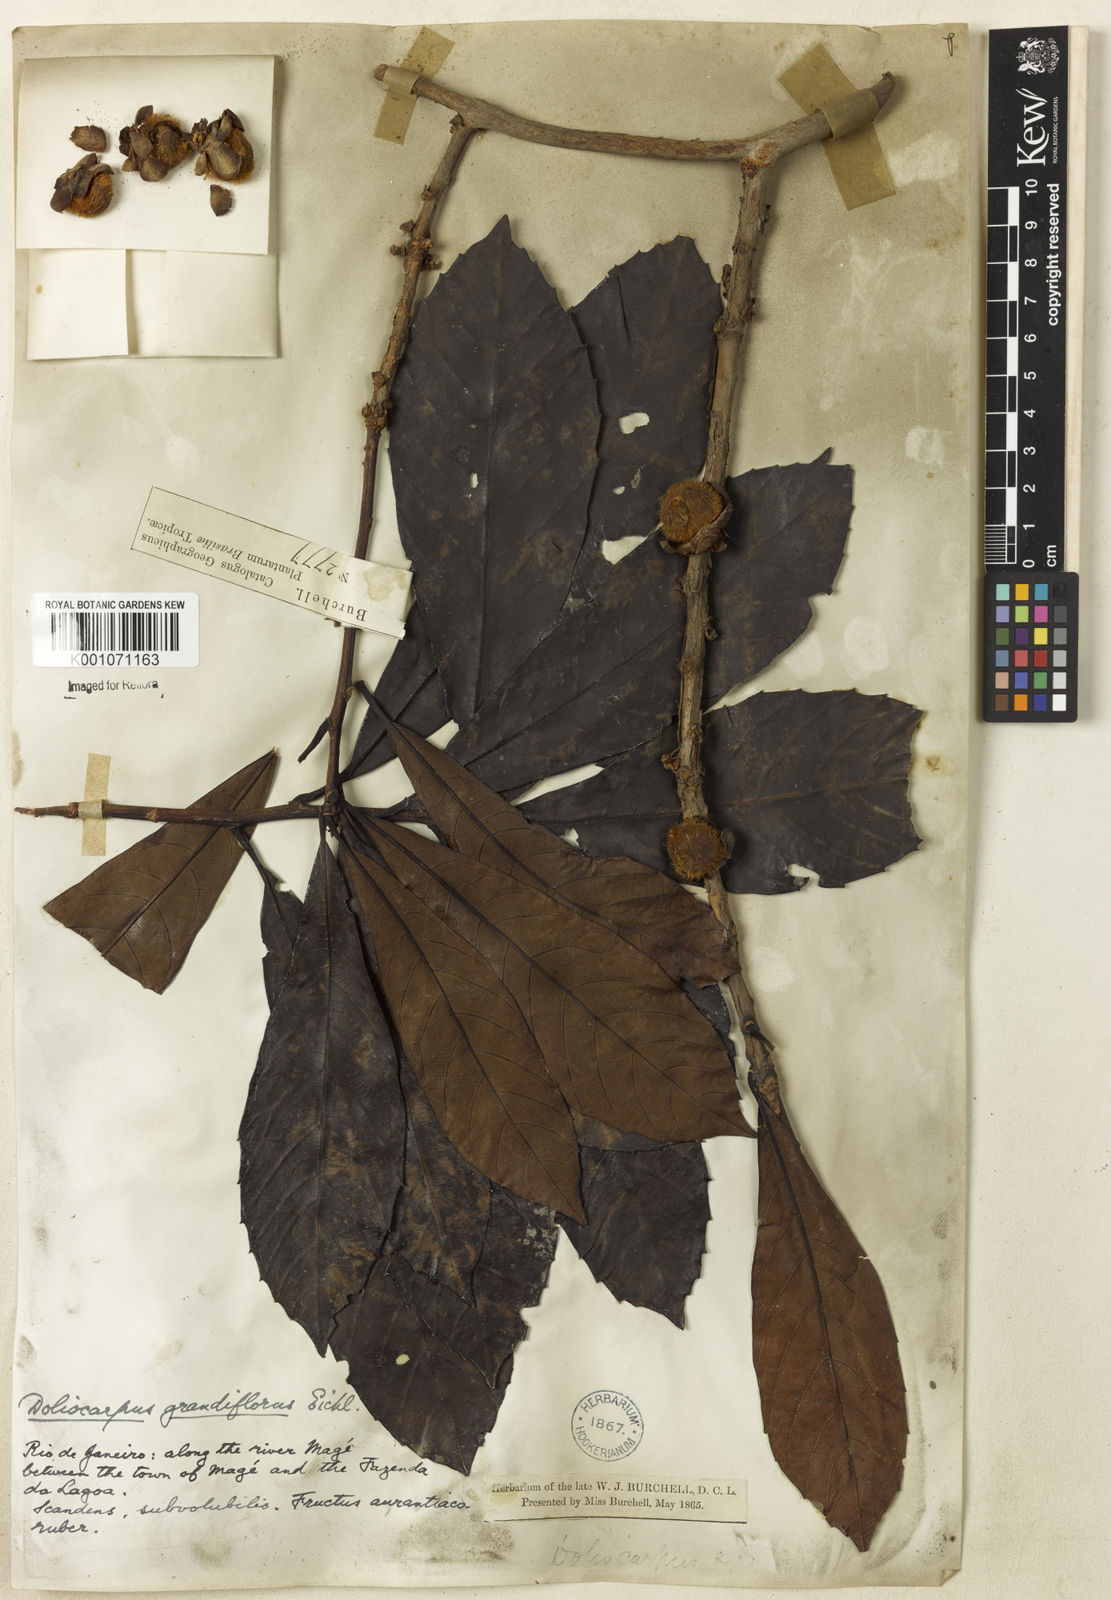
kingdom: Plantae
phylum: Tracheophyta
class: Magnoliopsida
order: Dilleniales
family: Dilleniaceae
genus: Doliocarpus
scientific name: Doliocarpus grandiflorus
